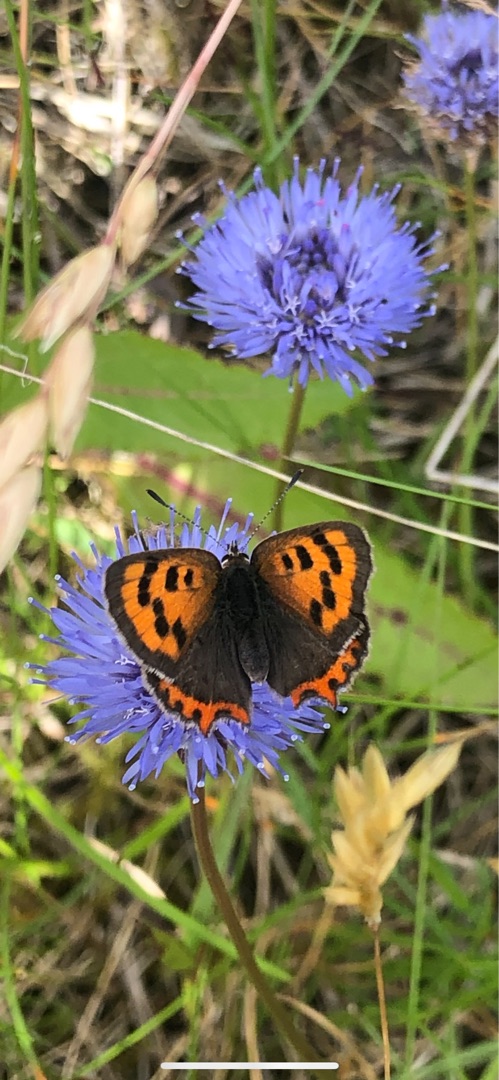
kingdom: Animalia
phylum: Arthropoda
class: Insecta
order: Lepidoptera
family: Lycaenidae
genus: Lycaena
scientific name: Lycaena phlaeas
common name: Lille ildfugl
